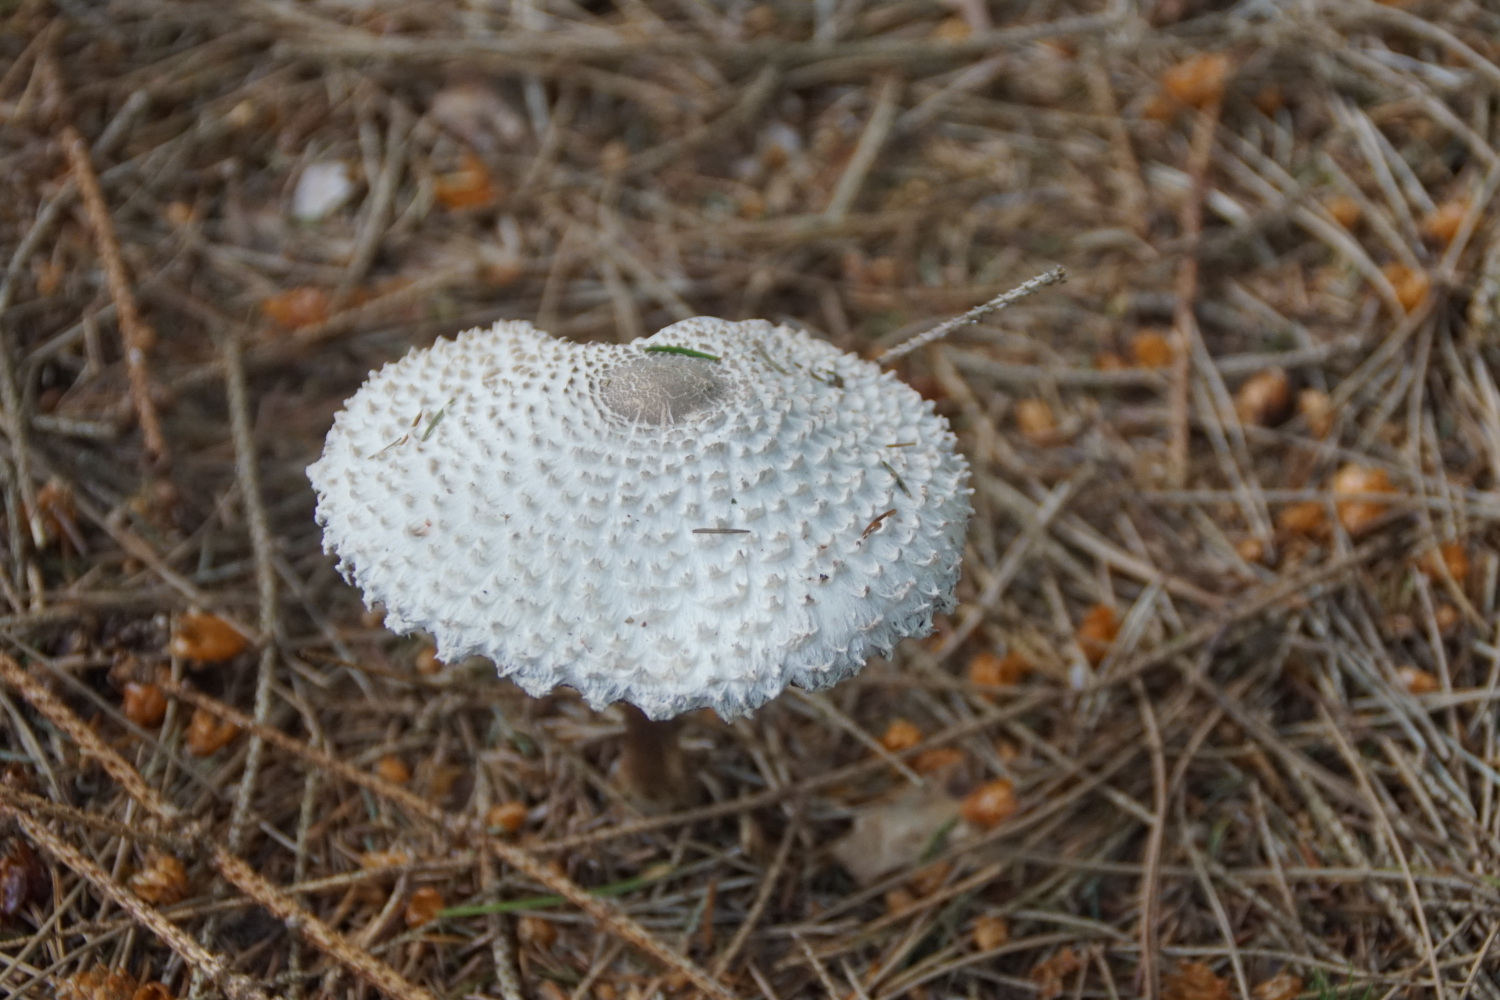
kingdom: Fungi
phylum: Basidiomycota
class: Agaricomycetes
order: Agaricales
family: Agaricaceae
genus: Leucoagaricus
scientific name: Leucoagaricus nympharum
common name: gran-silkehat
